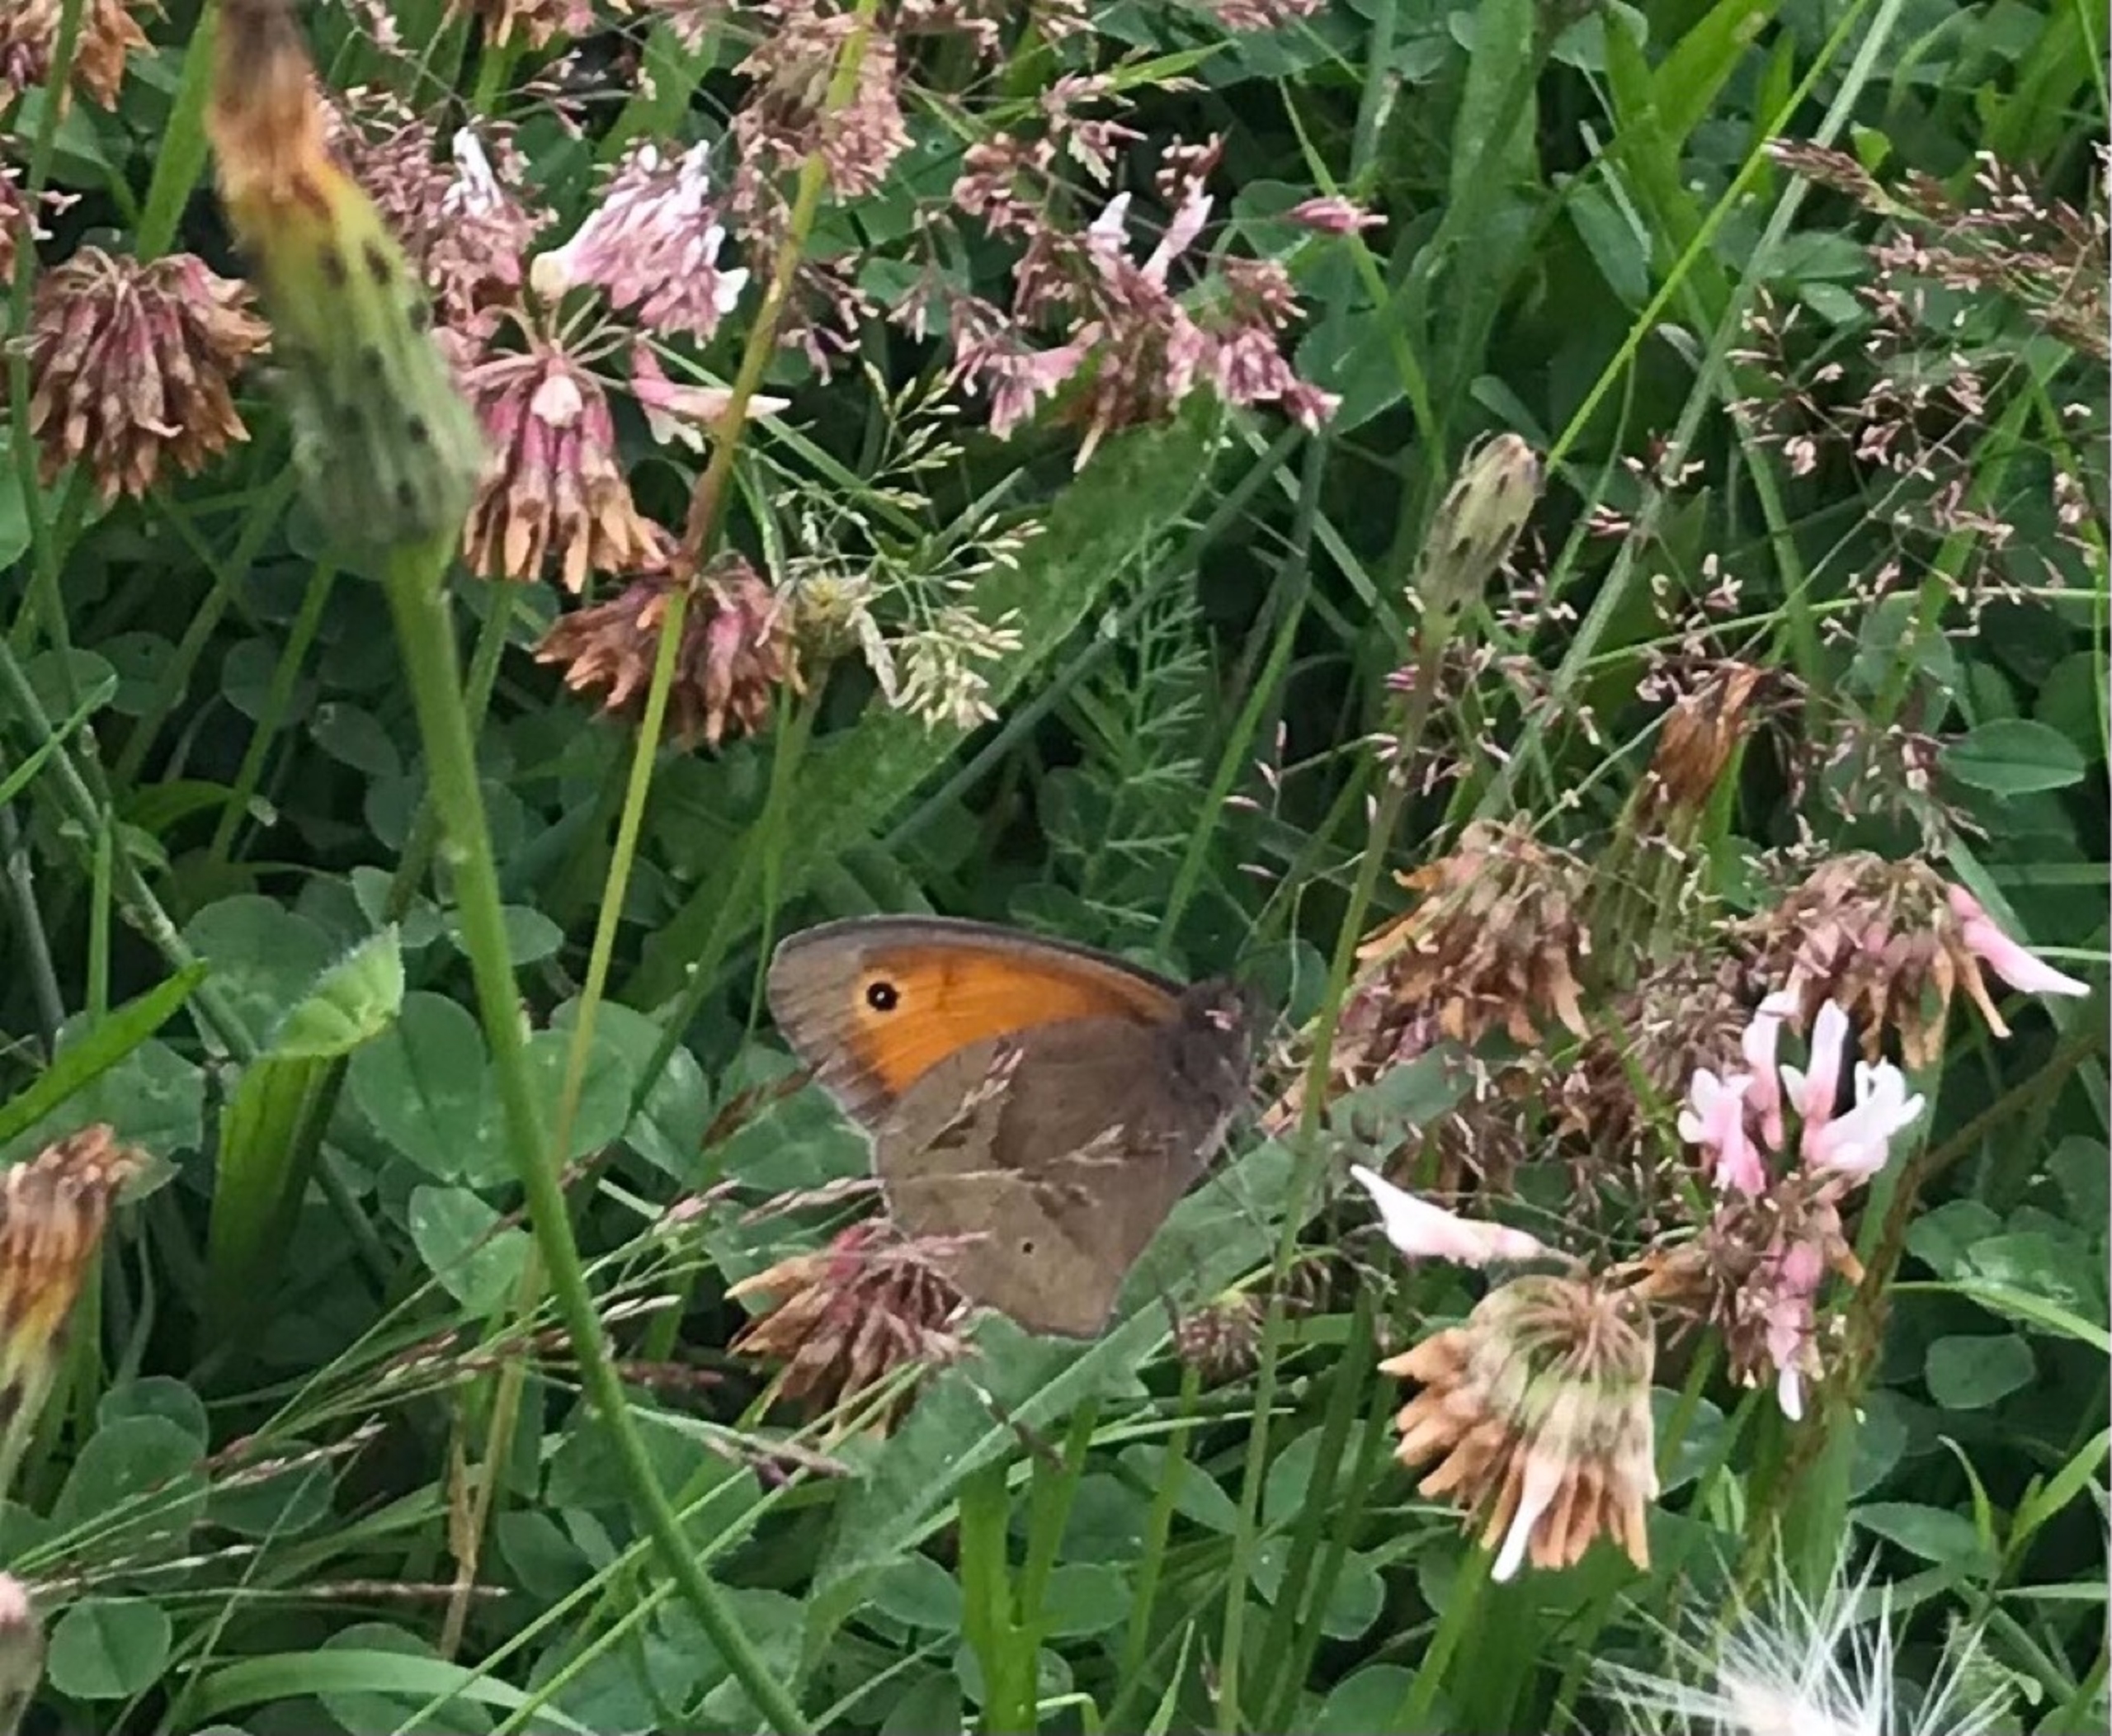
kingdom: Animalia
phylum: Arthropoda
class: Insecta
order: Lepidoptera
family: Nymphalidae
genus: Maniola
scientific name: Maniola jurtina
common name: Græsrandøje
